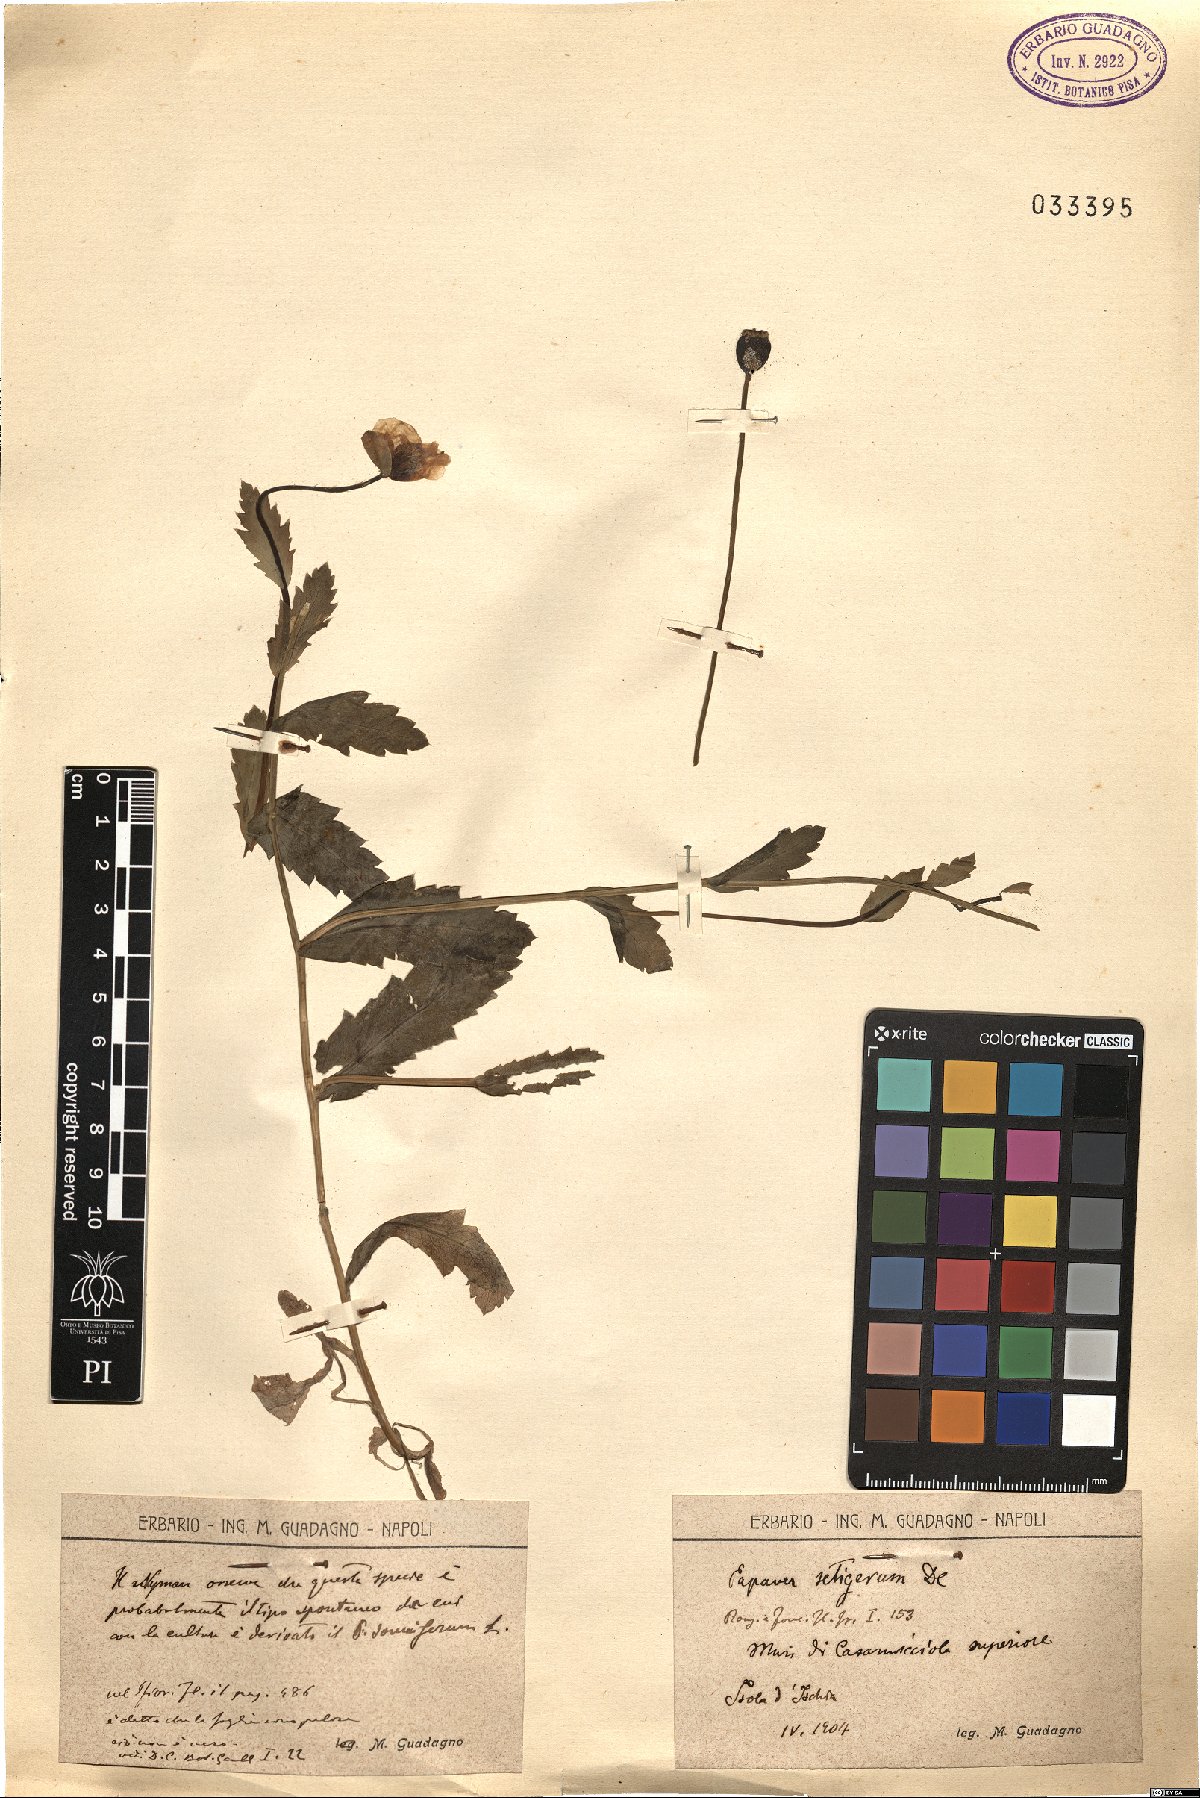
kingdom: Plantae
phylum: Tracheophyta
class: Magnoliopsida
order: Ranunculales
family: Papaveraceae
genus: Papaver
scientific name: Papaver setigerum
